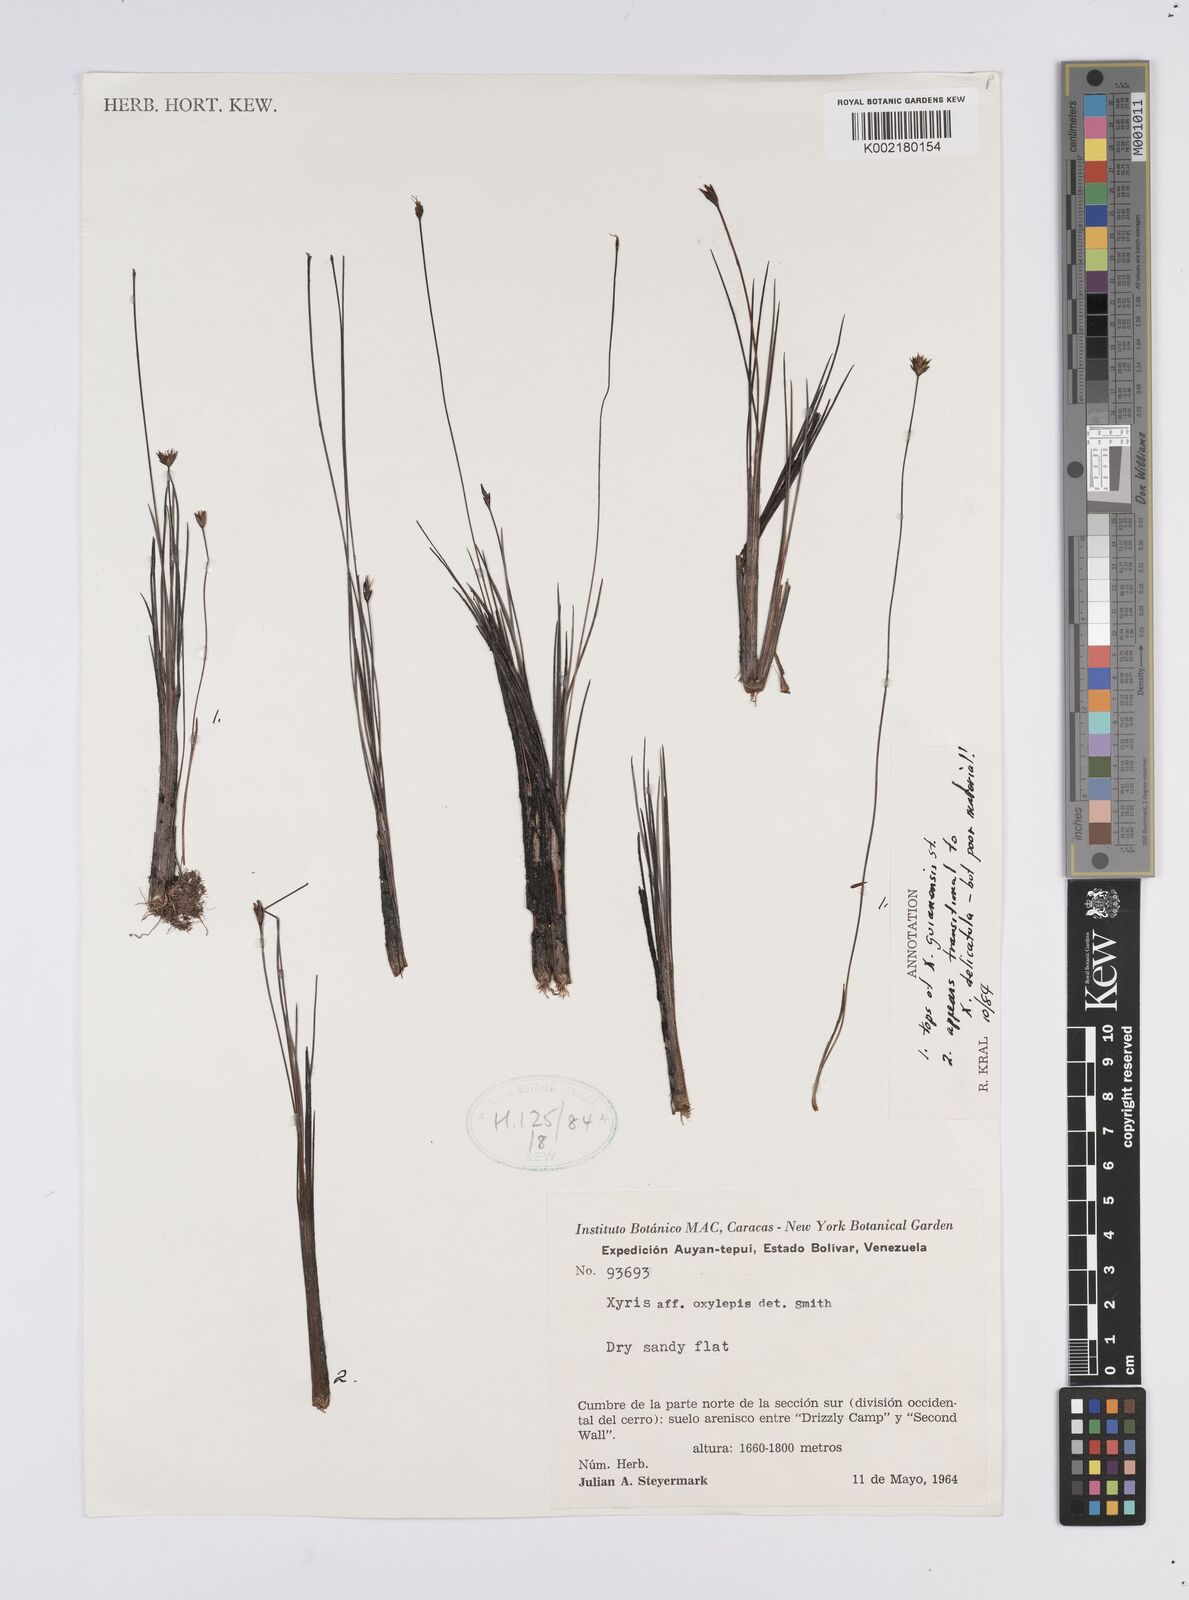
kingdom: Plantae
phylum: Tracheophyta
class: Liliopsida
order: Poales
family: Xyridaceae
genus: Xyris
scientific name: Xyris jupicai
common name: Richard's yelloweyed grass
